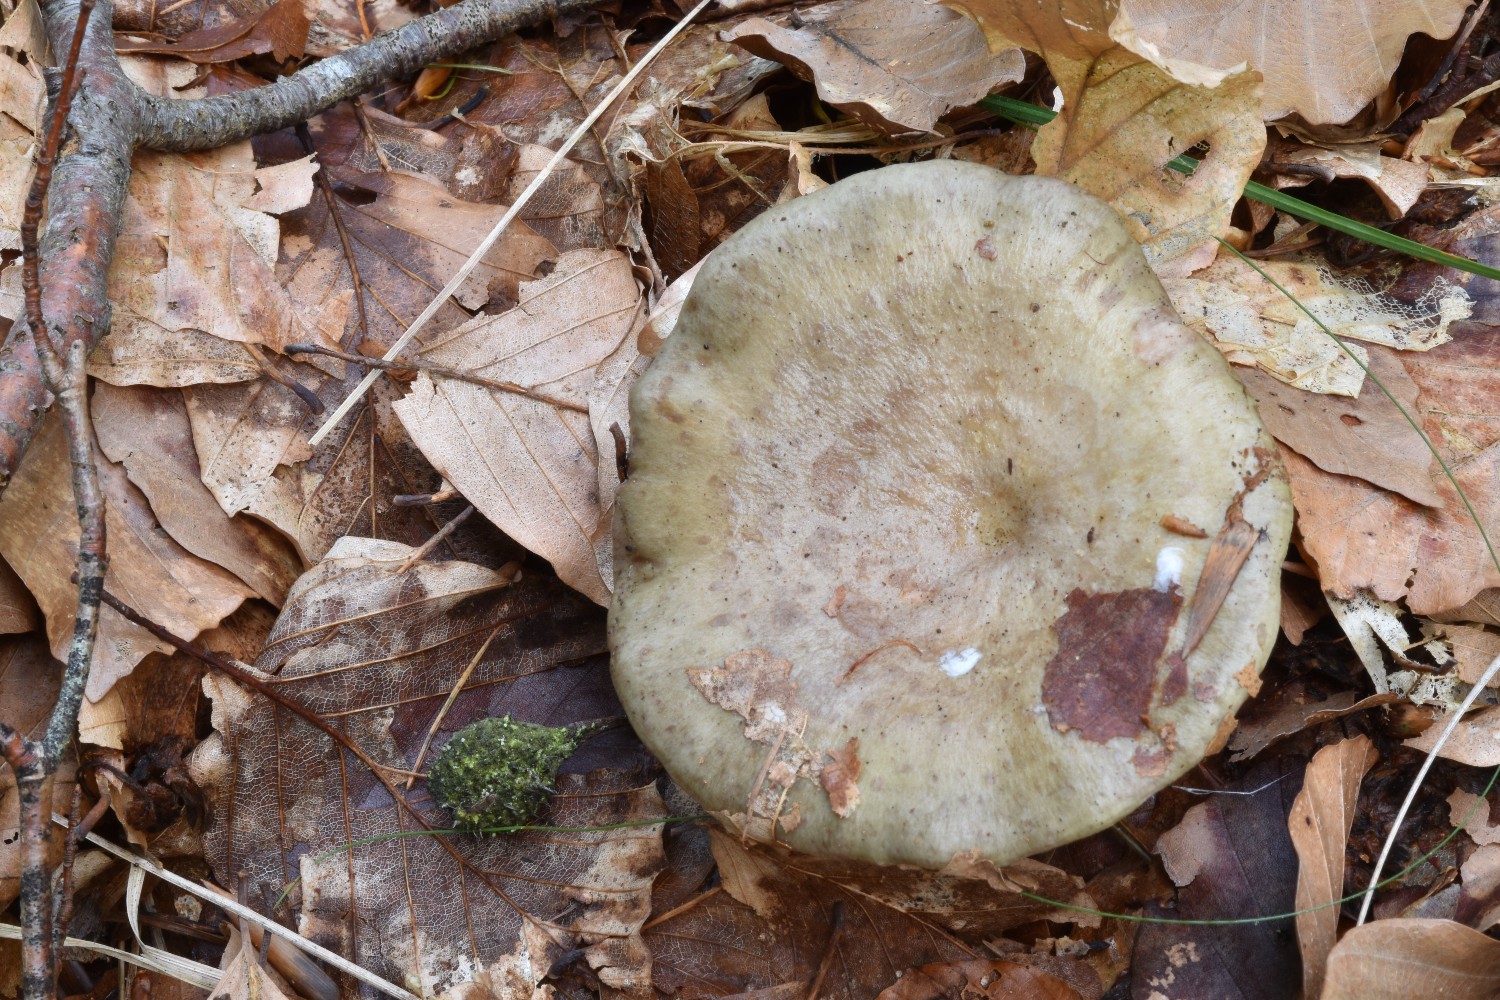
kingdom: Fungi
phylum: Basidiomycota
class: Agaricomycetes
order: Russulales
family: Russulaceae
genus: Lactarius
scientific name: Lactarius blennius
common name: dråbeplettet mælkehat
